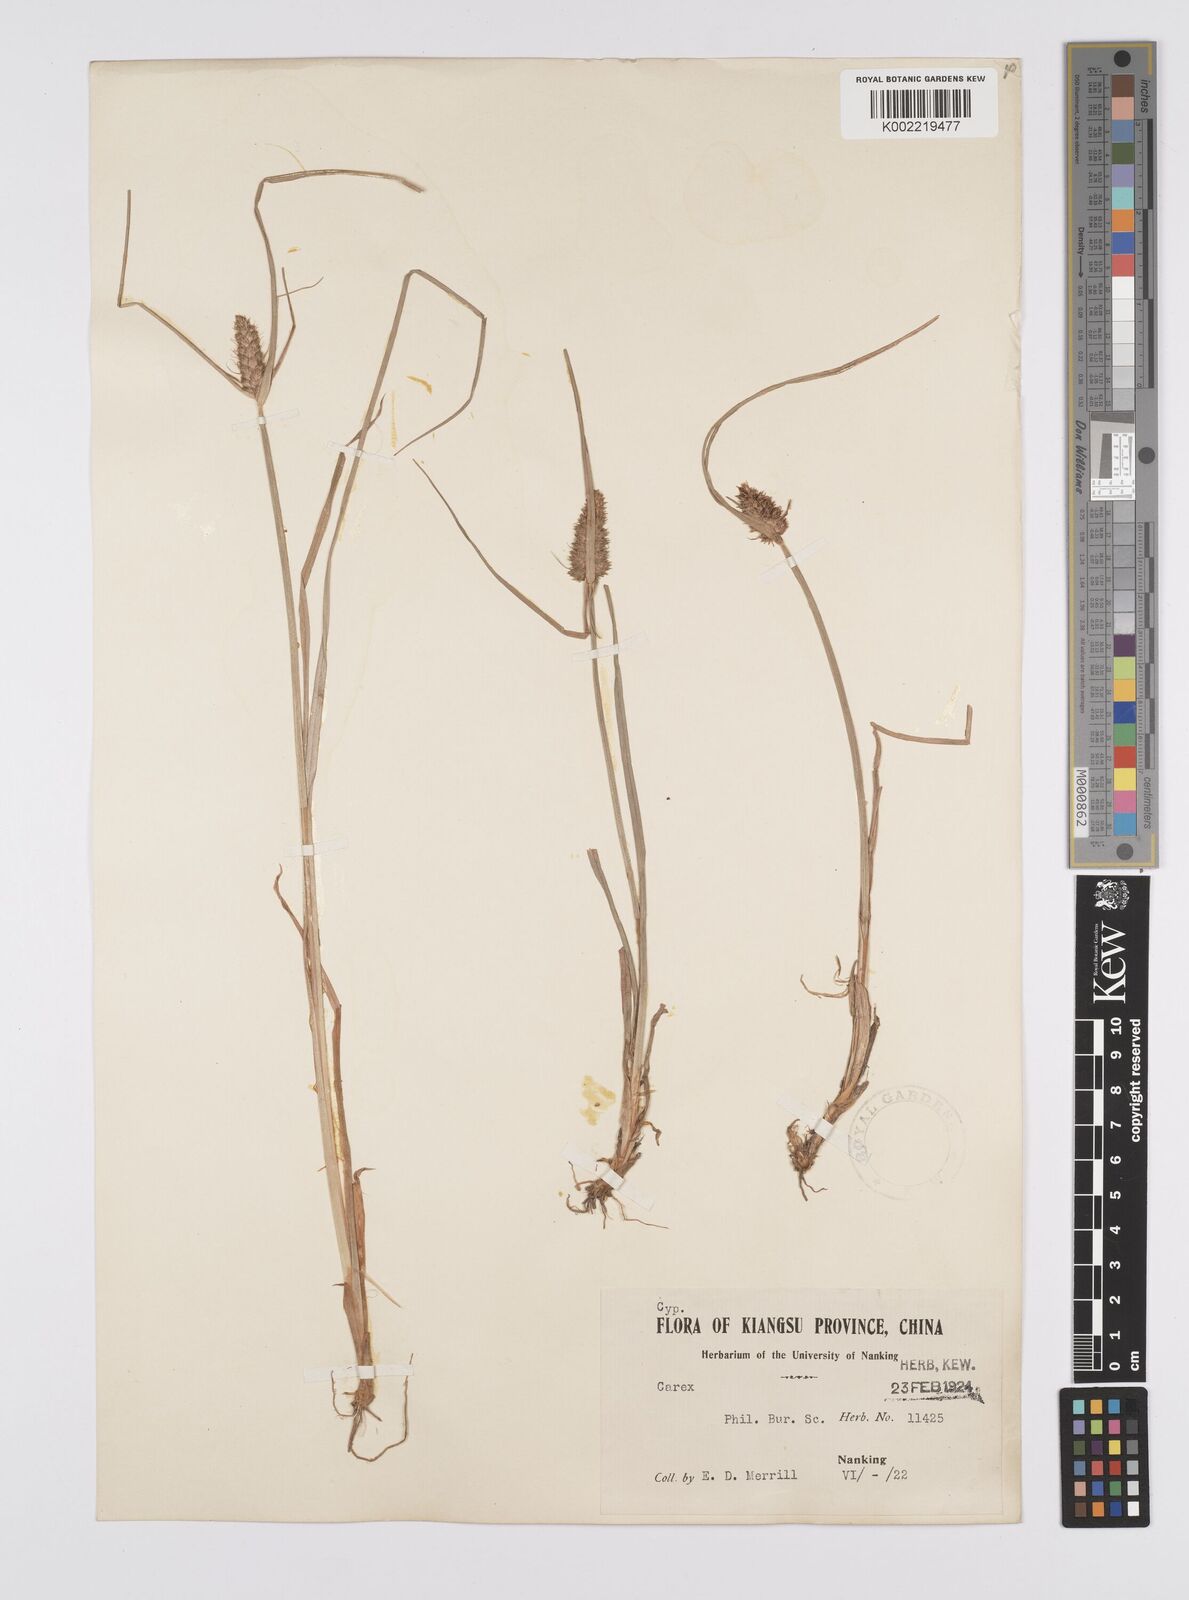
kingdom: Plantae
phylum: Tracheophyta
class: Liliopsida
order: Poales
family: Cyperaceae
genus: Carex
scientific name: Carex neurocarpa
